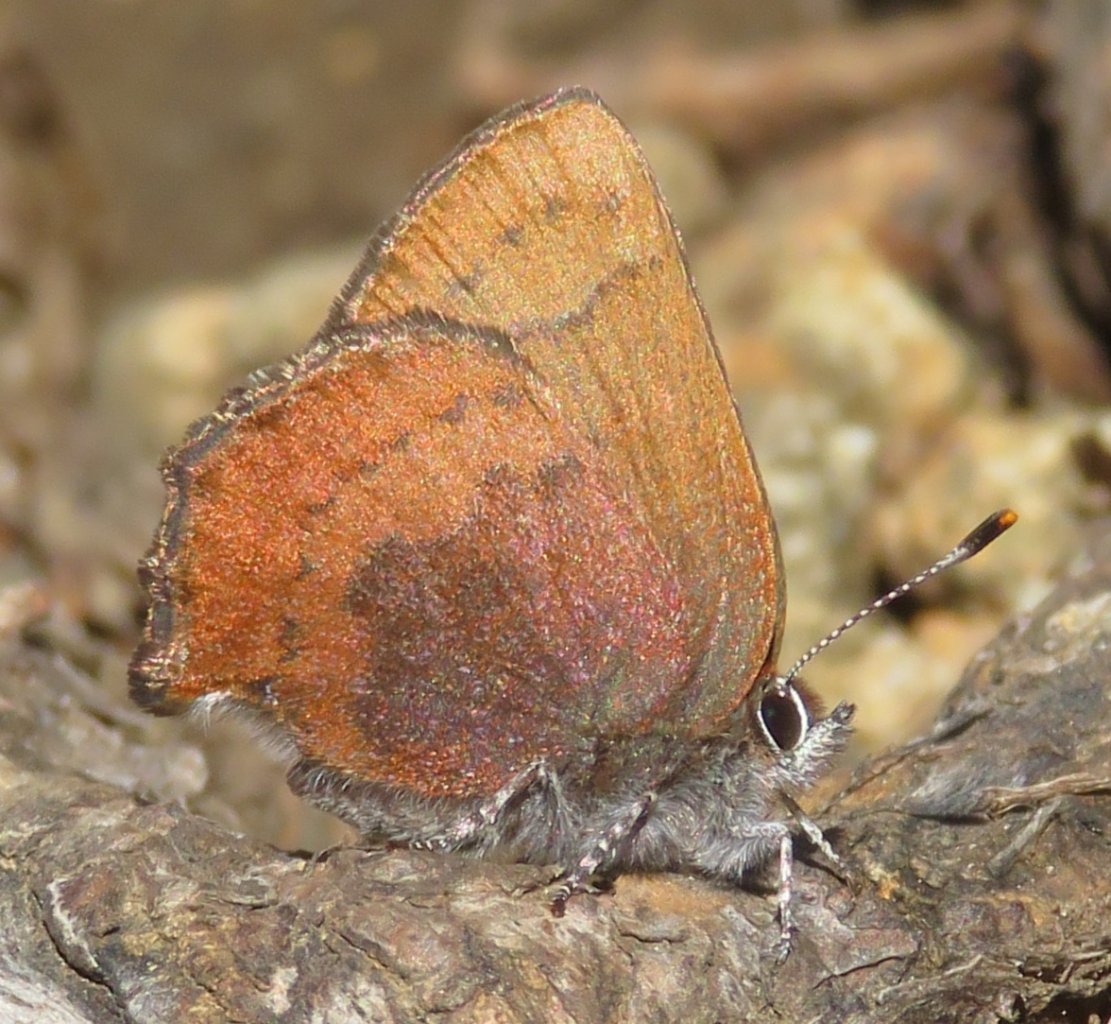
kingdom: Animalia
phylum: Arthropoda
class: Insecta
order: Lepidoptera
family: Lycaenidae
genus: Incisalia
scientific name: Incisalia irioides
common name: Brown Elfin
